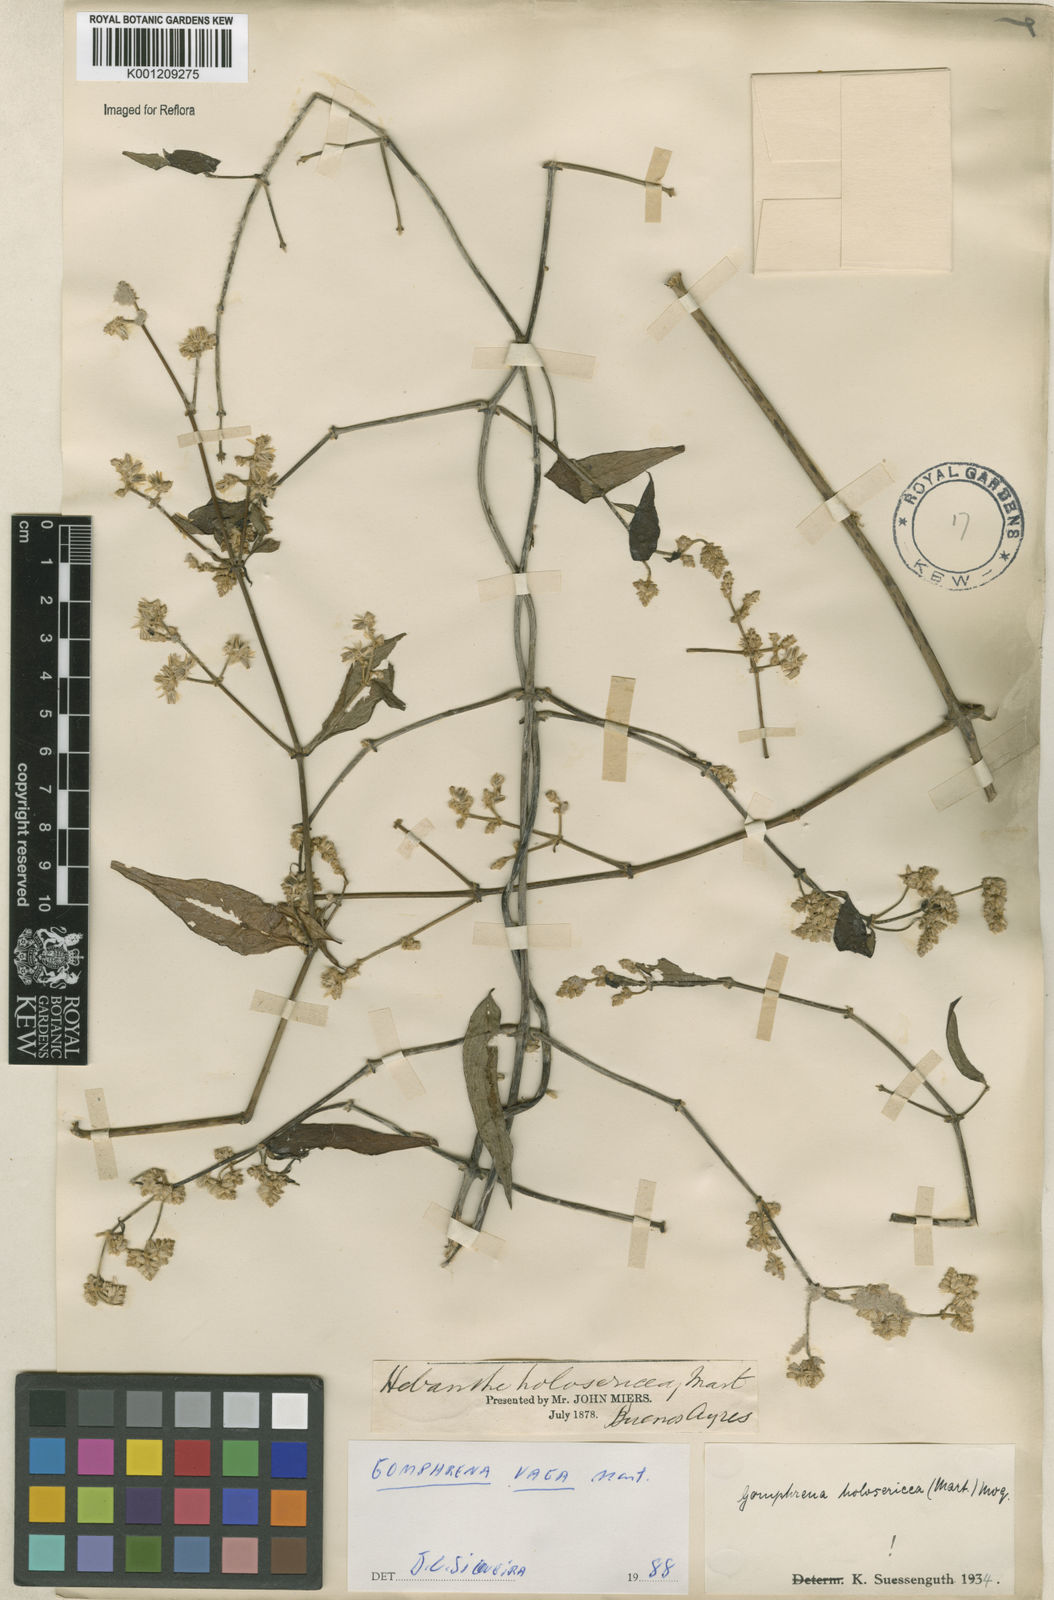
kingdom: Plantae
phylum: Tracheophyta
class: Magnoliopsida
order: Caryophyllales
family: Amaranthaceae
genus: Gomphrena
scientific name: Gomphrena vaga
